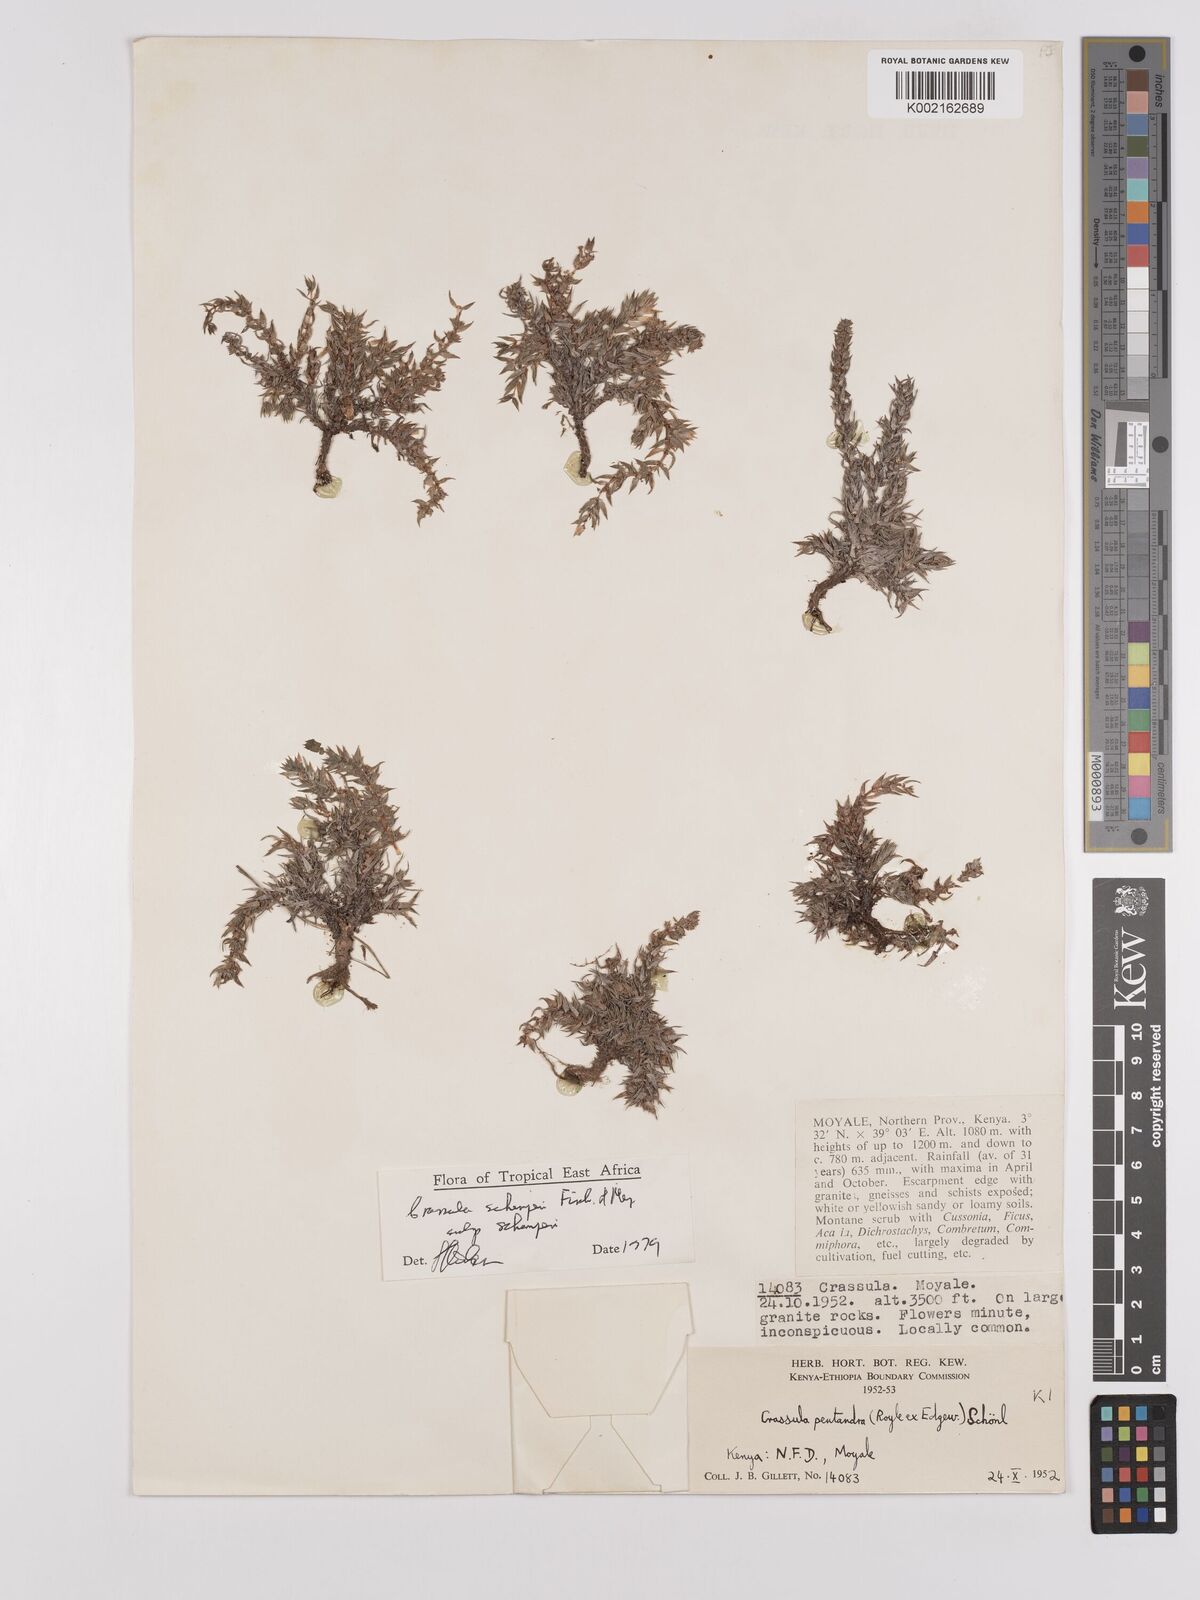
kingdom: Plantae
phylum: Tracheophyta
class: Magnoliopsida
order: Saxifragales
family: Crassulaceae
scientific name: Crassulaceae
